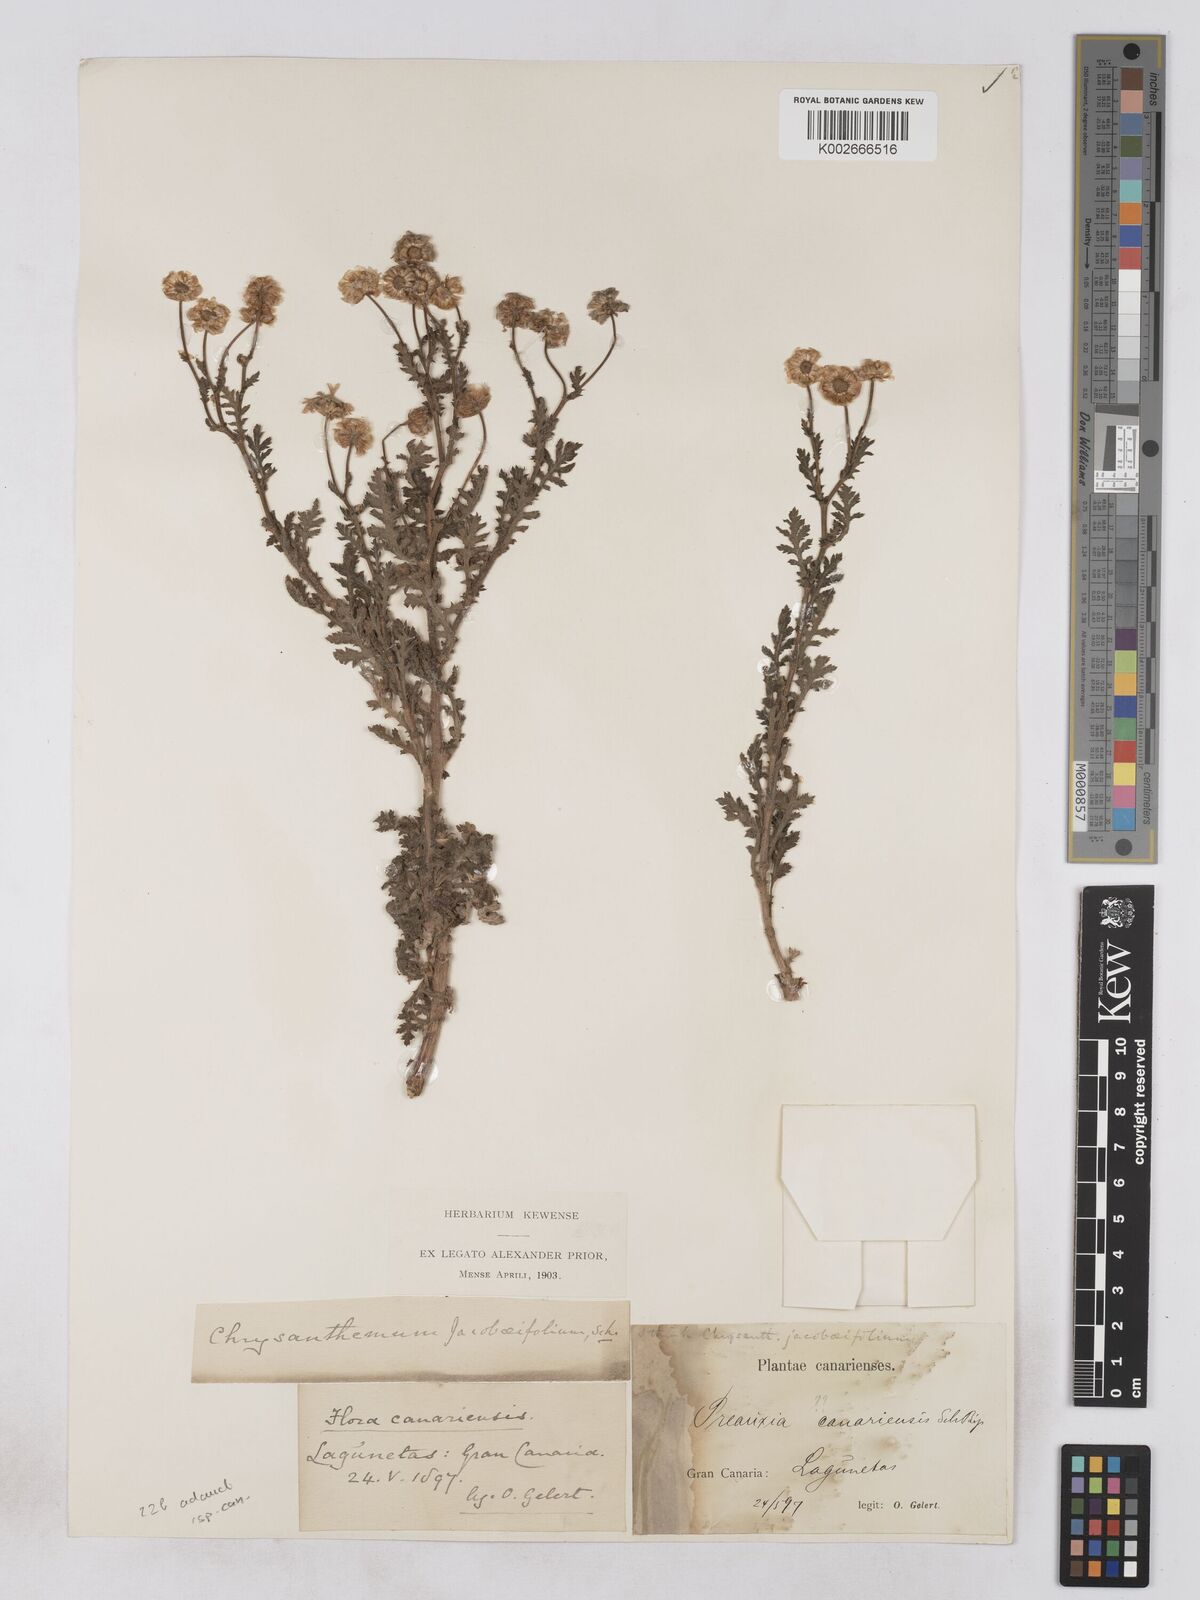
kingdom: Plantae
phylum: Tracheophyta
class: Magnoliopsida
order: Asterales
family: Asteraceae
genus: Argyranthemum
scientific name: Argyranthemum adauctum
